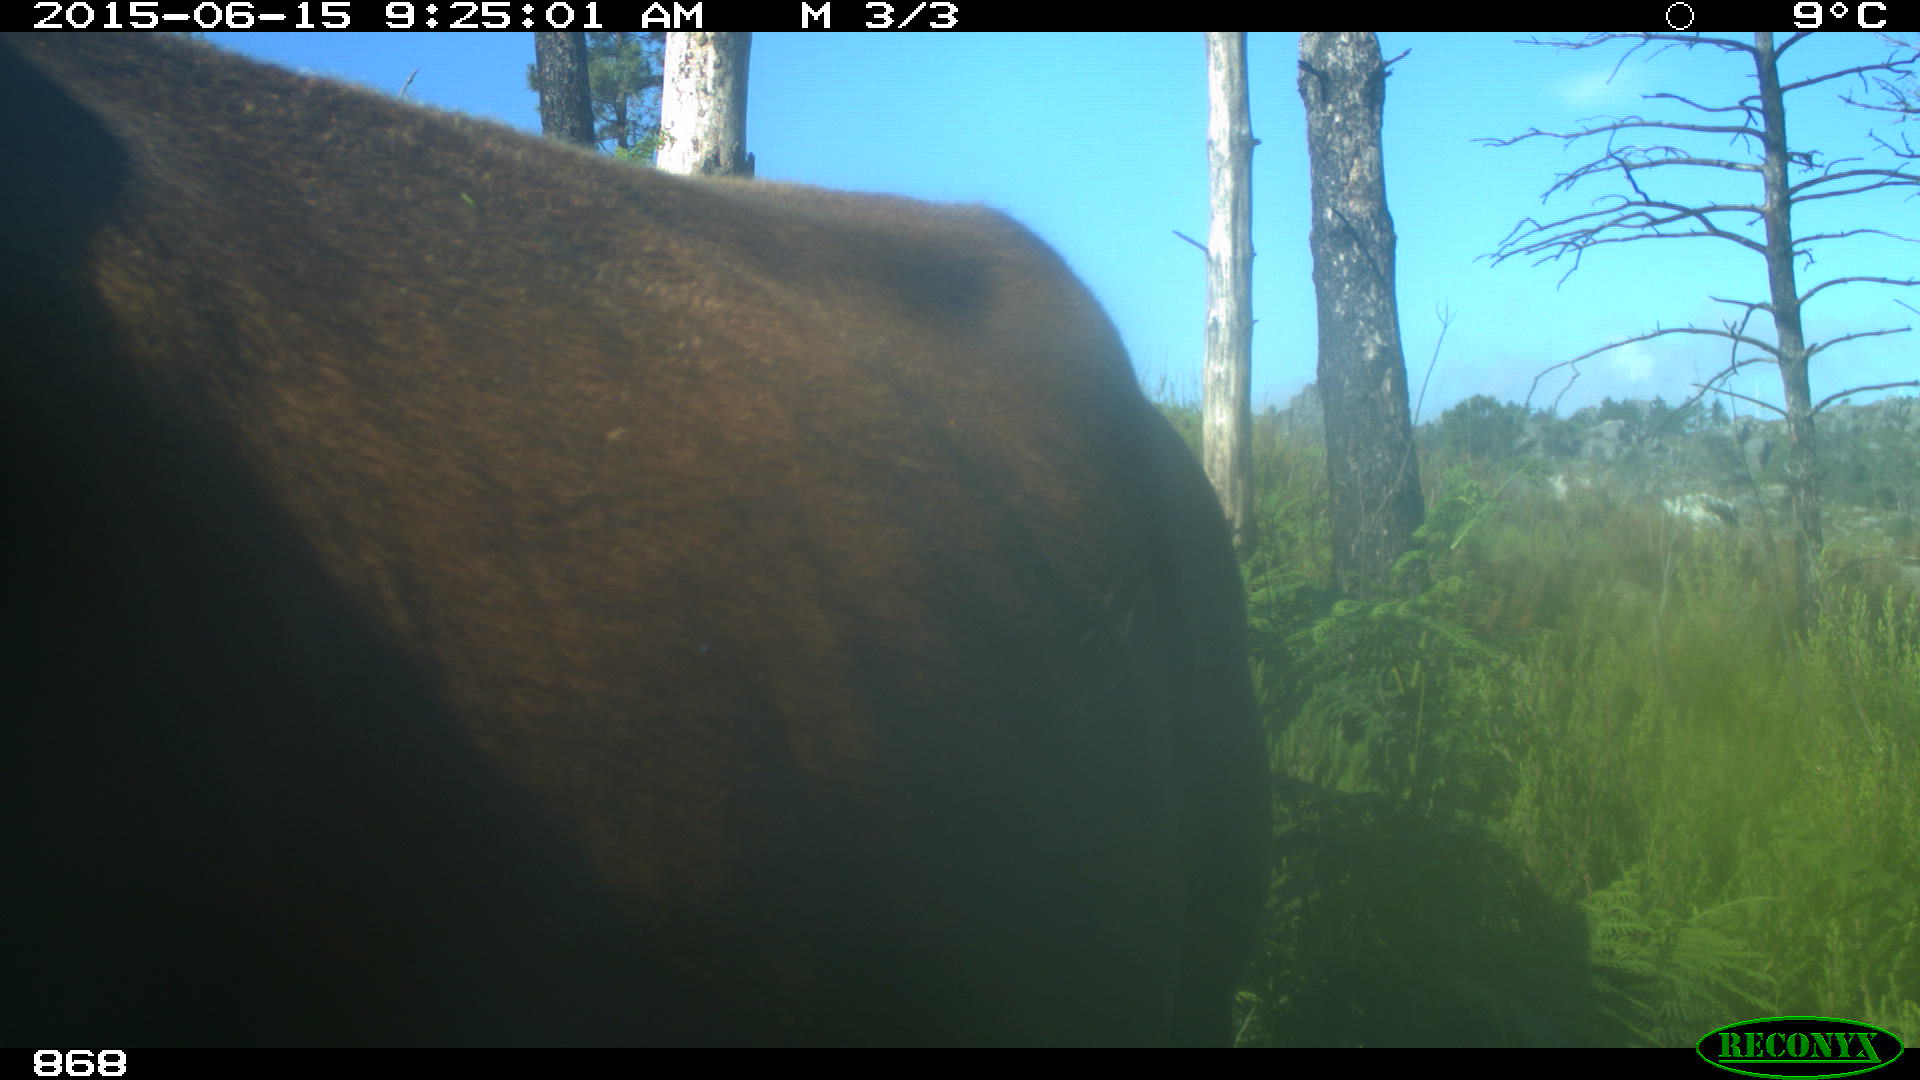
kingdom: Animalia
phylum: Chordata
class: Mammalia
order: Artiodactyla
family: Bovidae
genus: Bos
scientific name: Bos taurus
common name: Domesticated cattle
